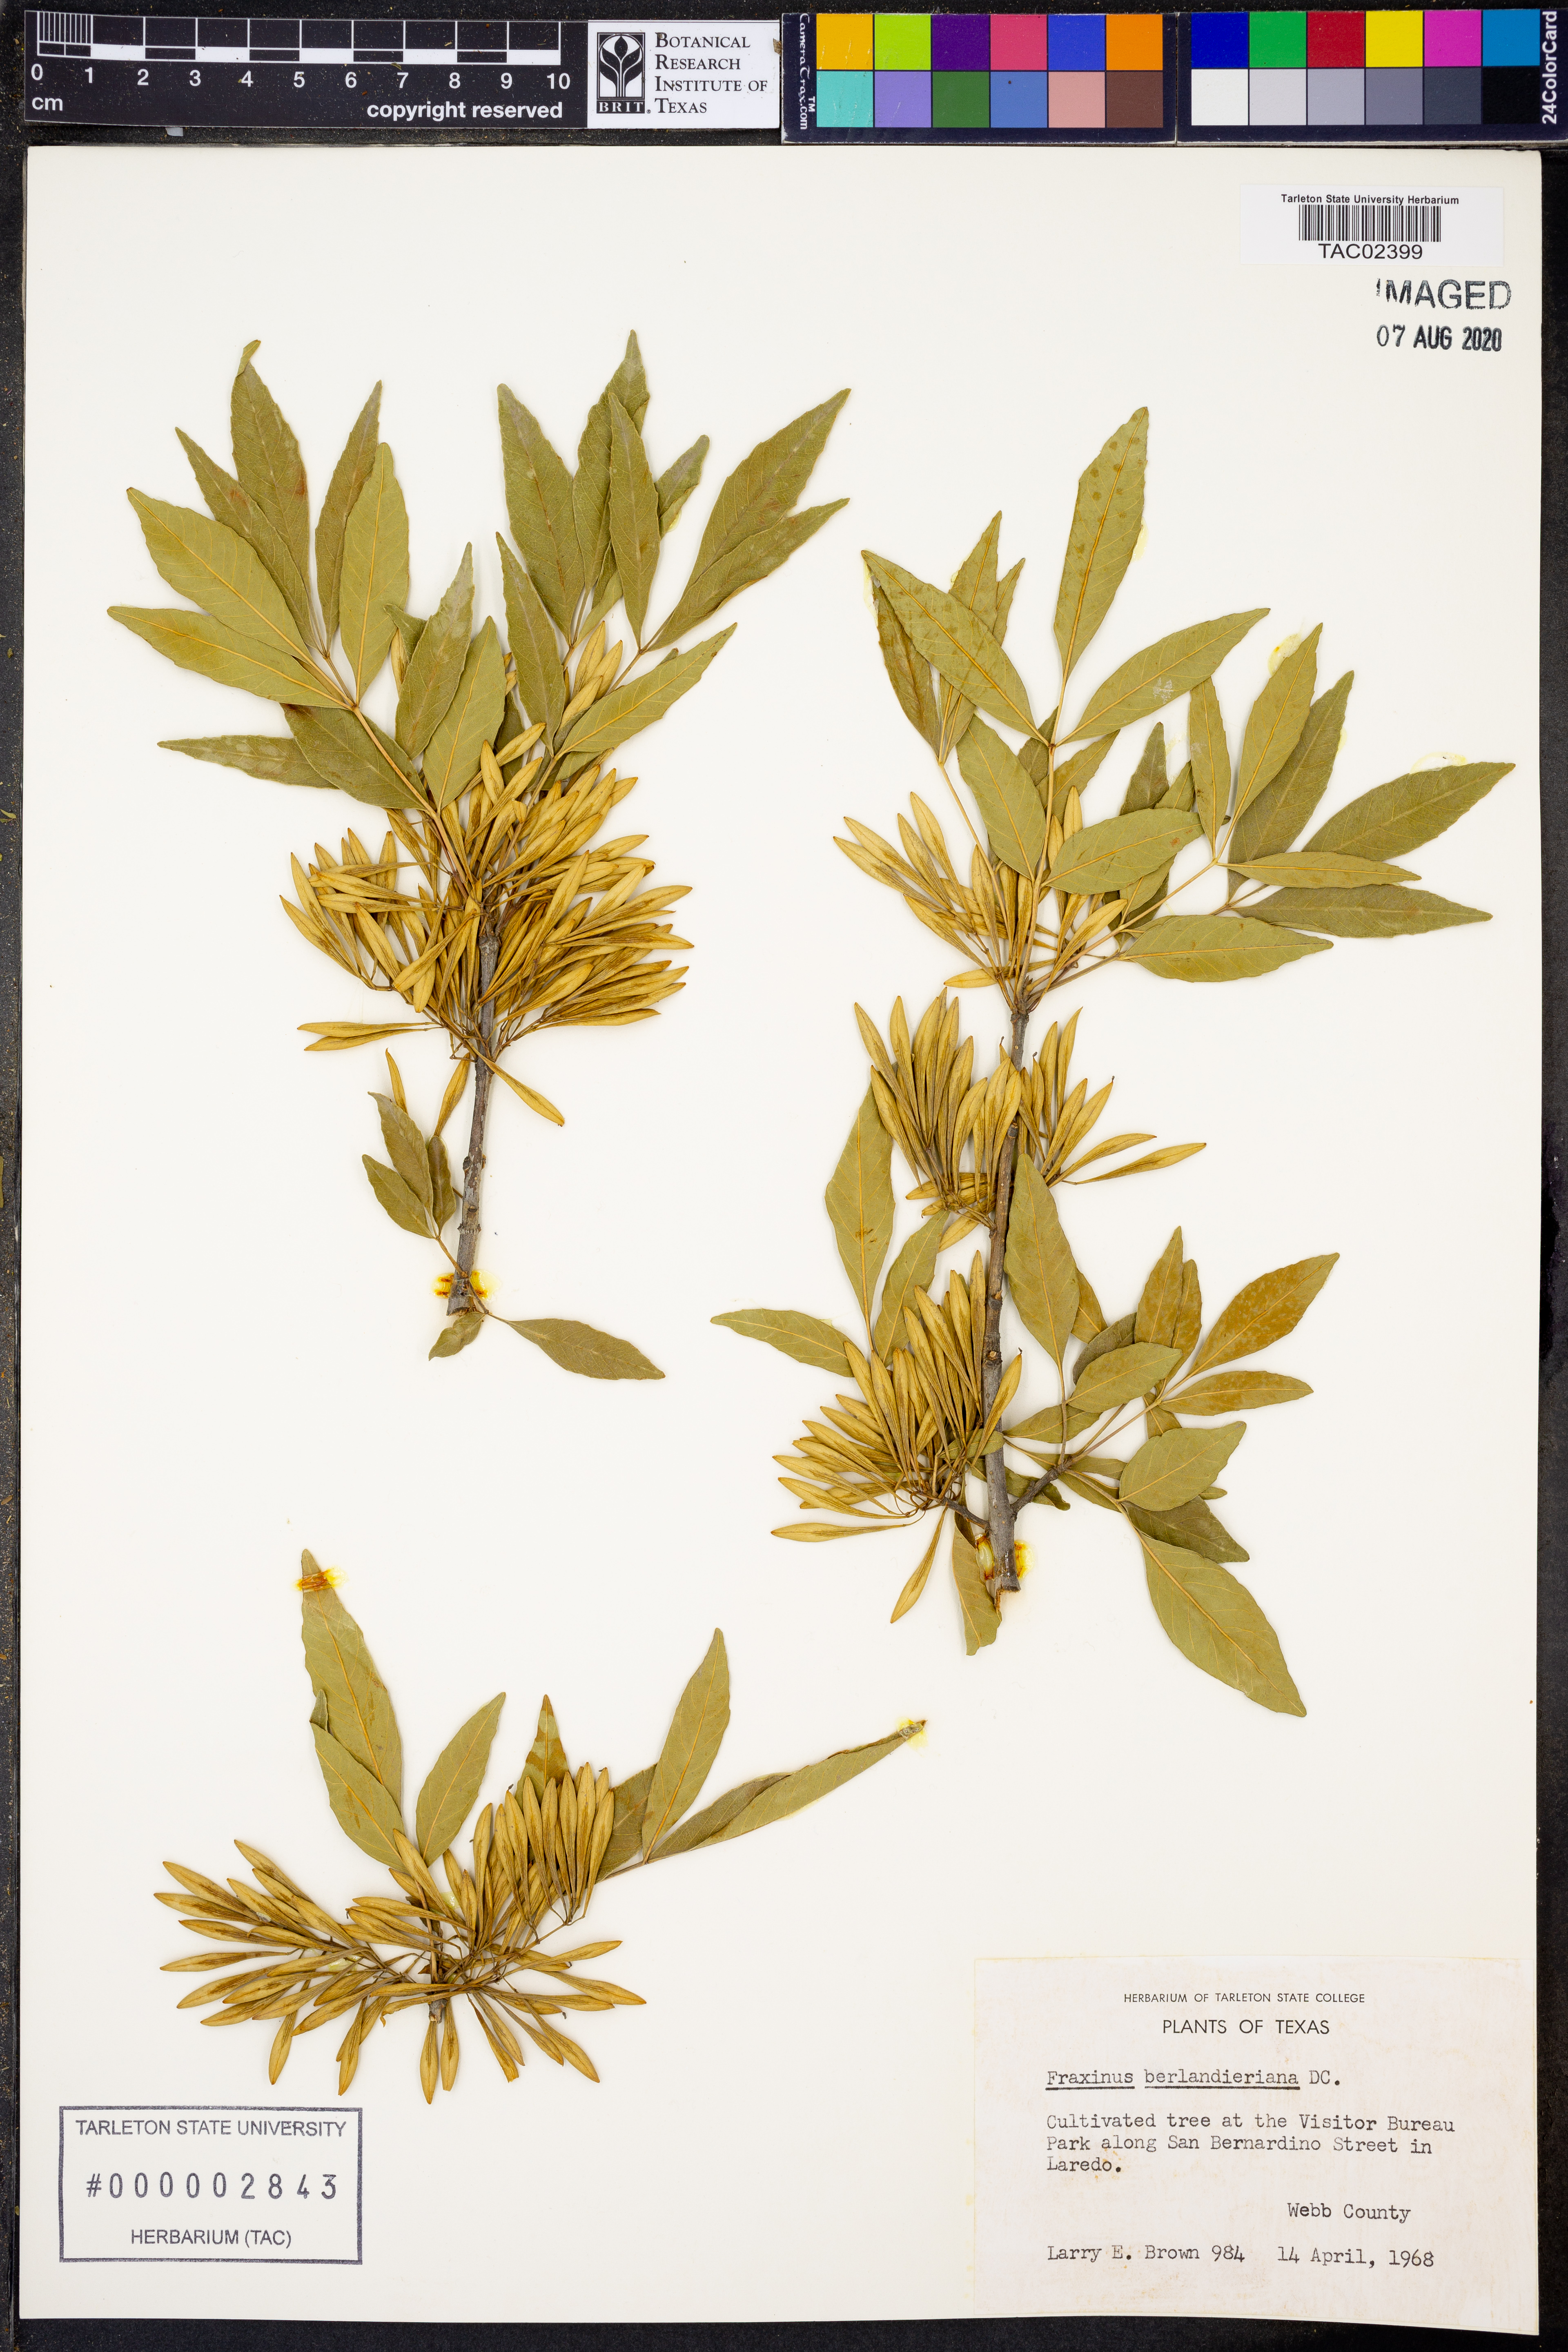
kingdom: Plantae
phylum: Tracheophyta
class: Magnoliopsida
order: Lamiales
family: Oleaceae
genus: Fraxinus
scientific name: Fraxinus berlandieriana
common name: Berlandier ash
